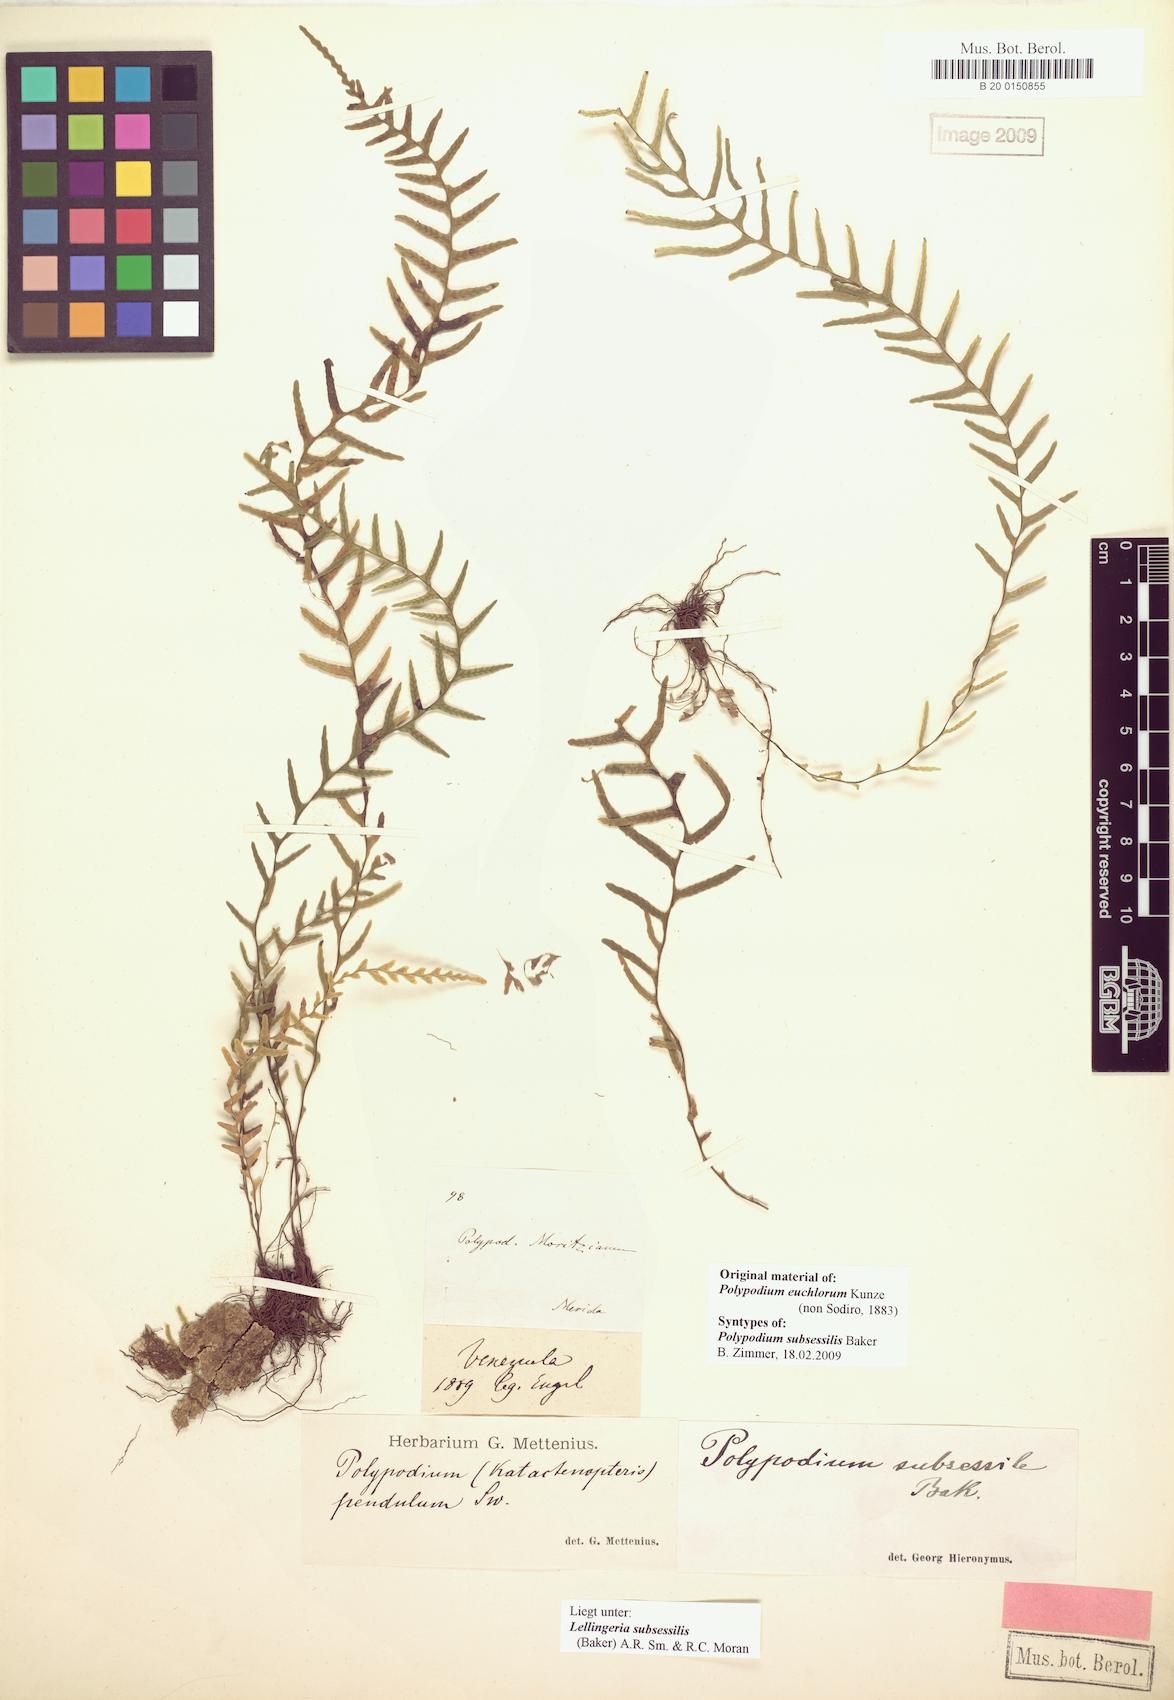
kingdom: Plantae
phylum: Tracheophyta
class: Polypodiopsida
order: Polypodiales
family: Polypodiaceae
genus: Lellingeria
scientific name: Lellingeria laxifolia
